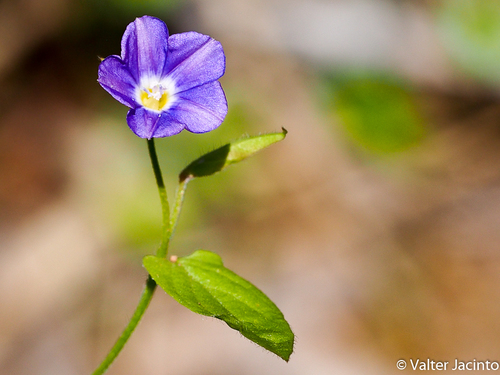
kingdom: Plantae
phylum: Tracheophyta
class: Magnoliopsida
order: Solanales
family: Convolvulaceae
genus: Convolvulus
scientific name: Convolvulus siculus
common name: Small blue-convolvulus
